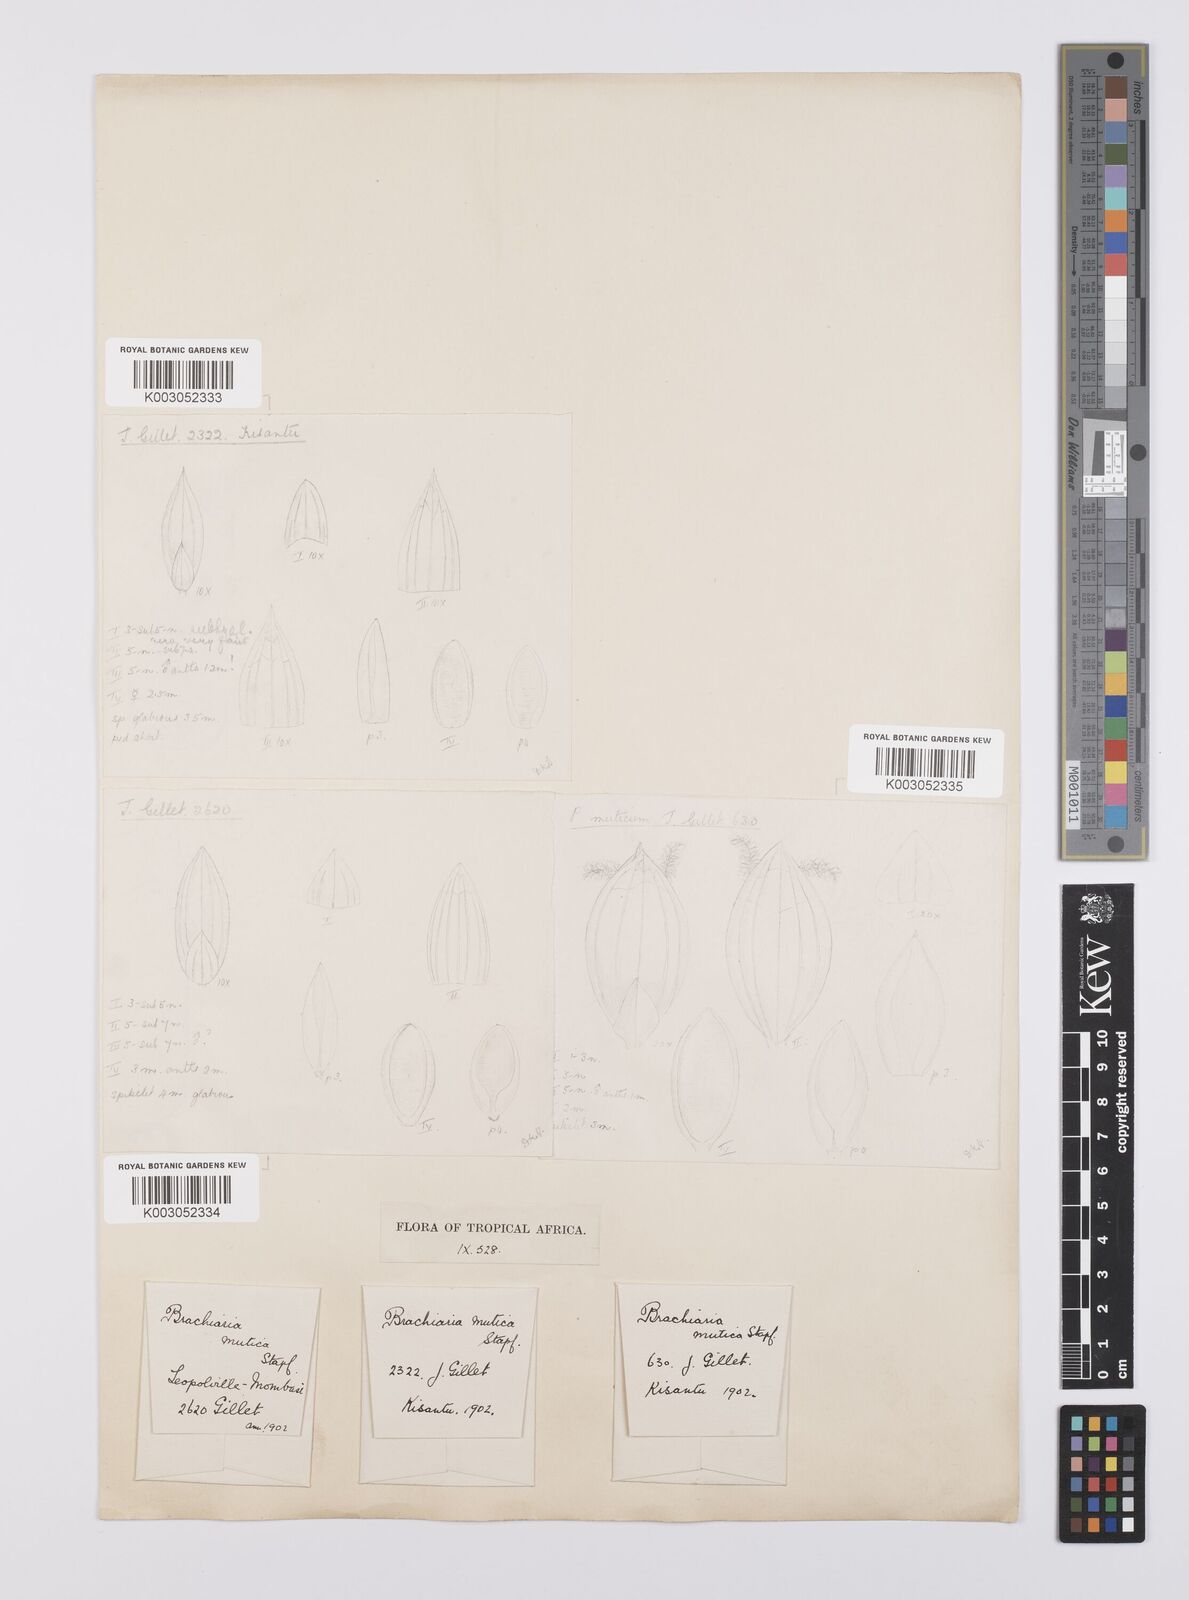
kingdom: Plantae
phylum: Tracheophyta
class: Liliopsida
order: Poales
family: Poaceae
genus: Urochloa
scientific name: Urochloa mutica
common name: Para grass
